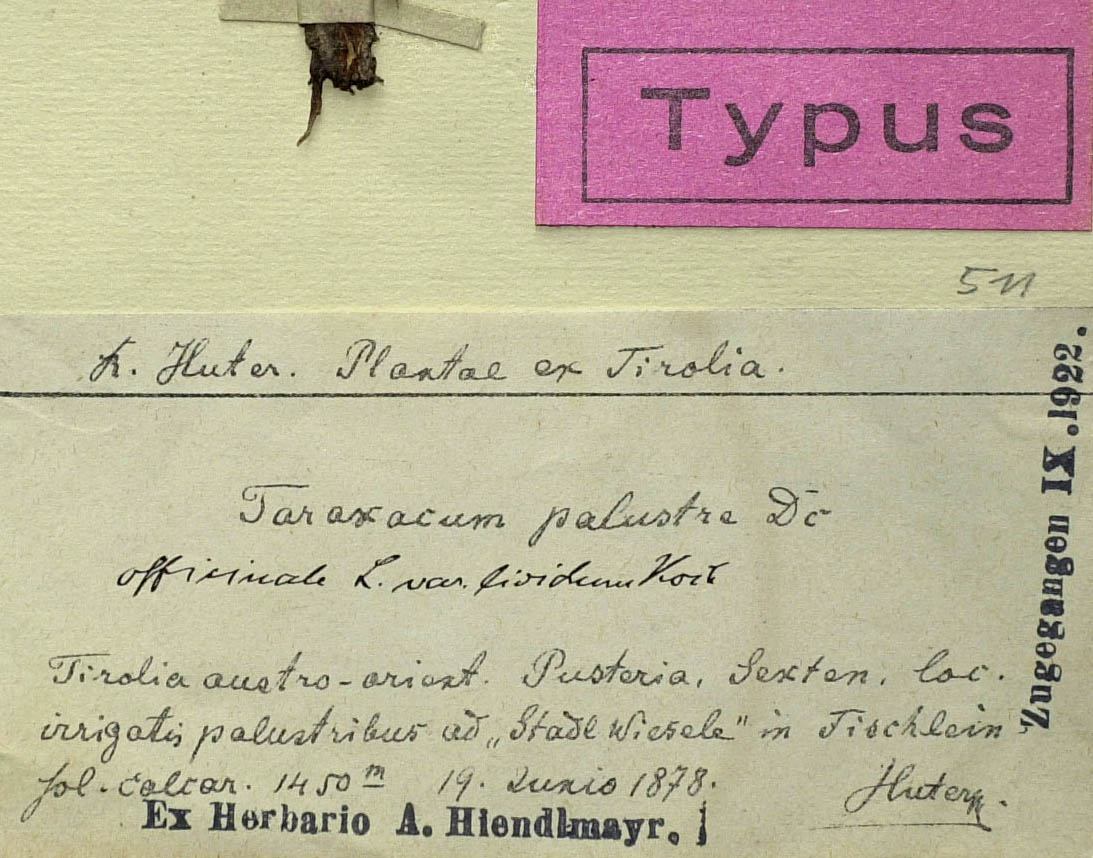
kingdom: Plantae
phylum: Tracheophyta
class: Magnoliopsida
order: Asterales
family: Asteraceae
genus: Taraxacum
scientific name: Taraxacum huterianum
